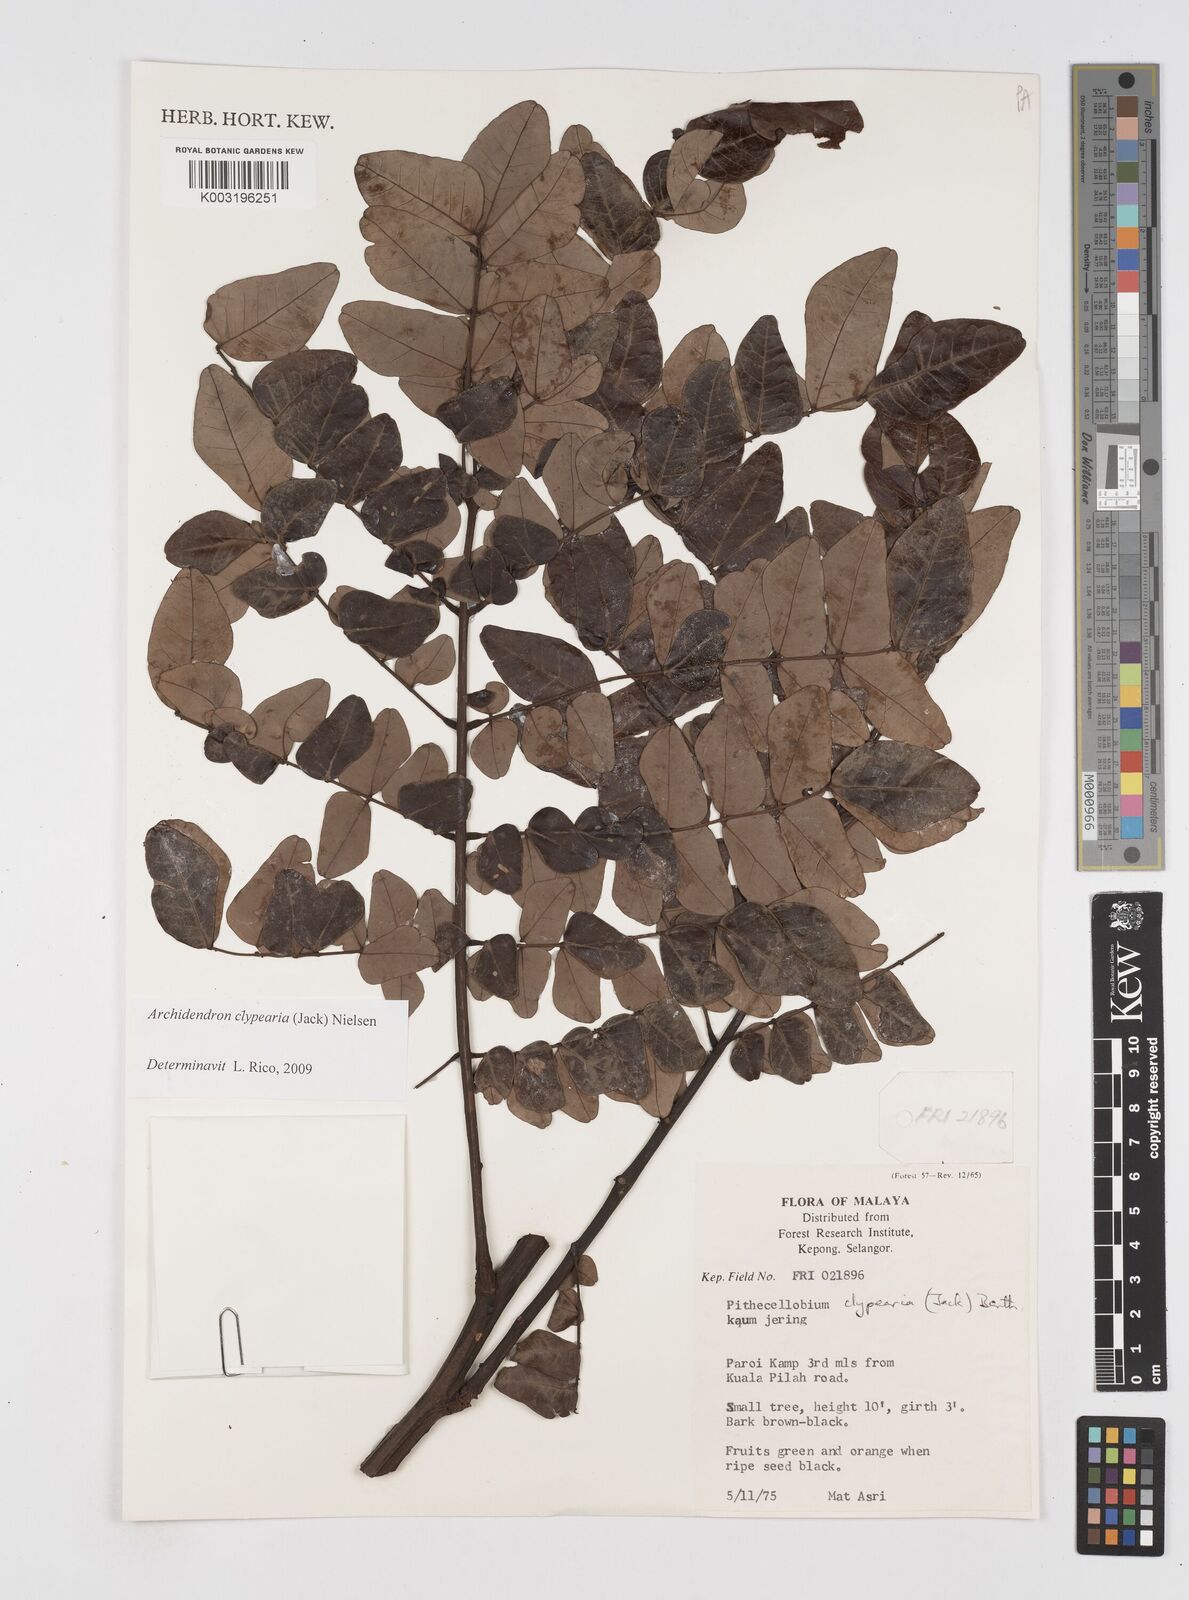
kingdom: Plantae
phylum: Tracheophyta
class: Magnoliopsida
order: Fabales
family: Fabaceae
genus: Archidendron
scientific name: Archidendron clypearia
